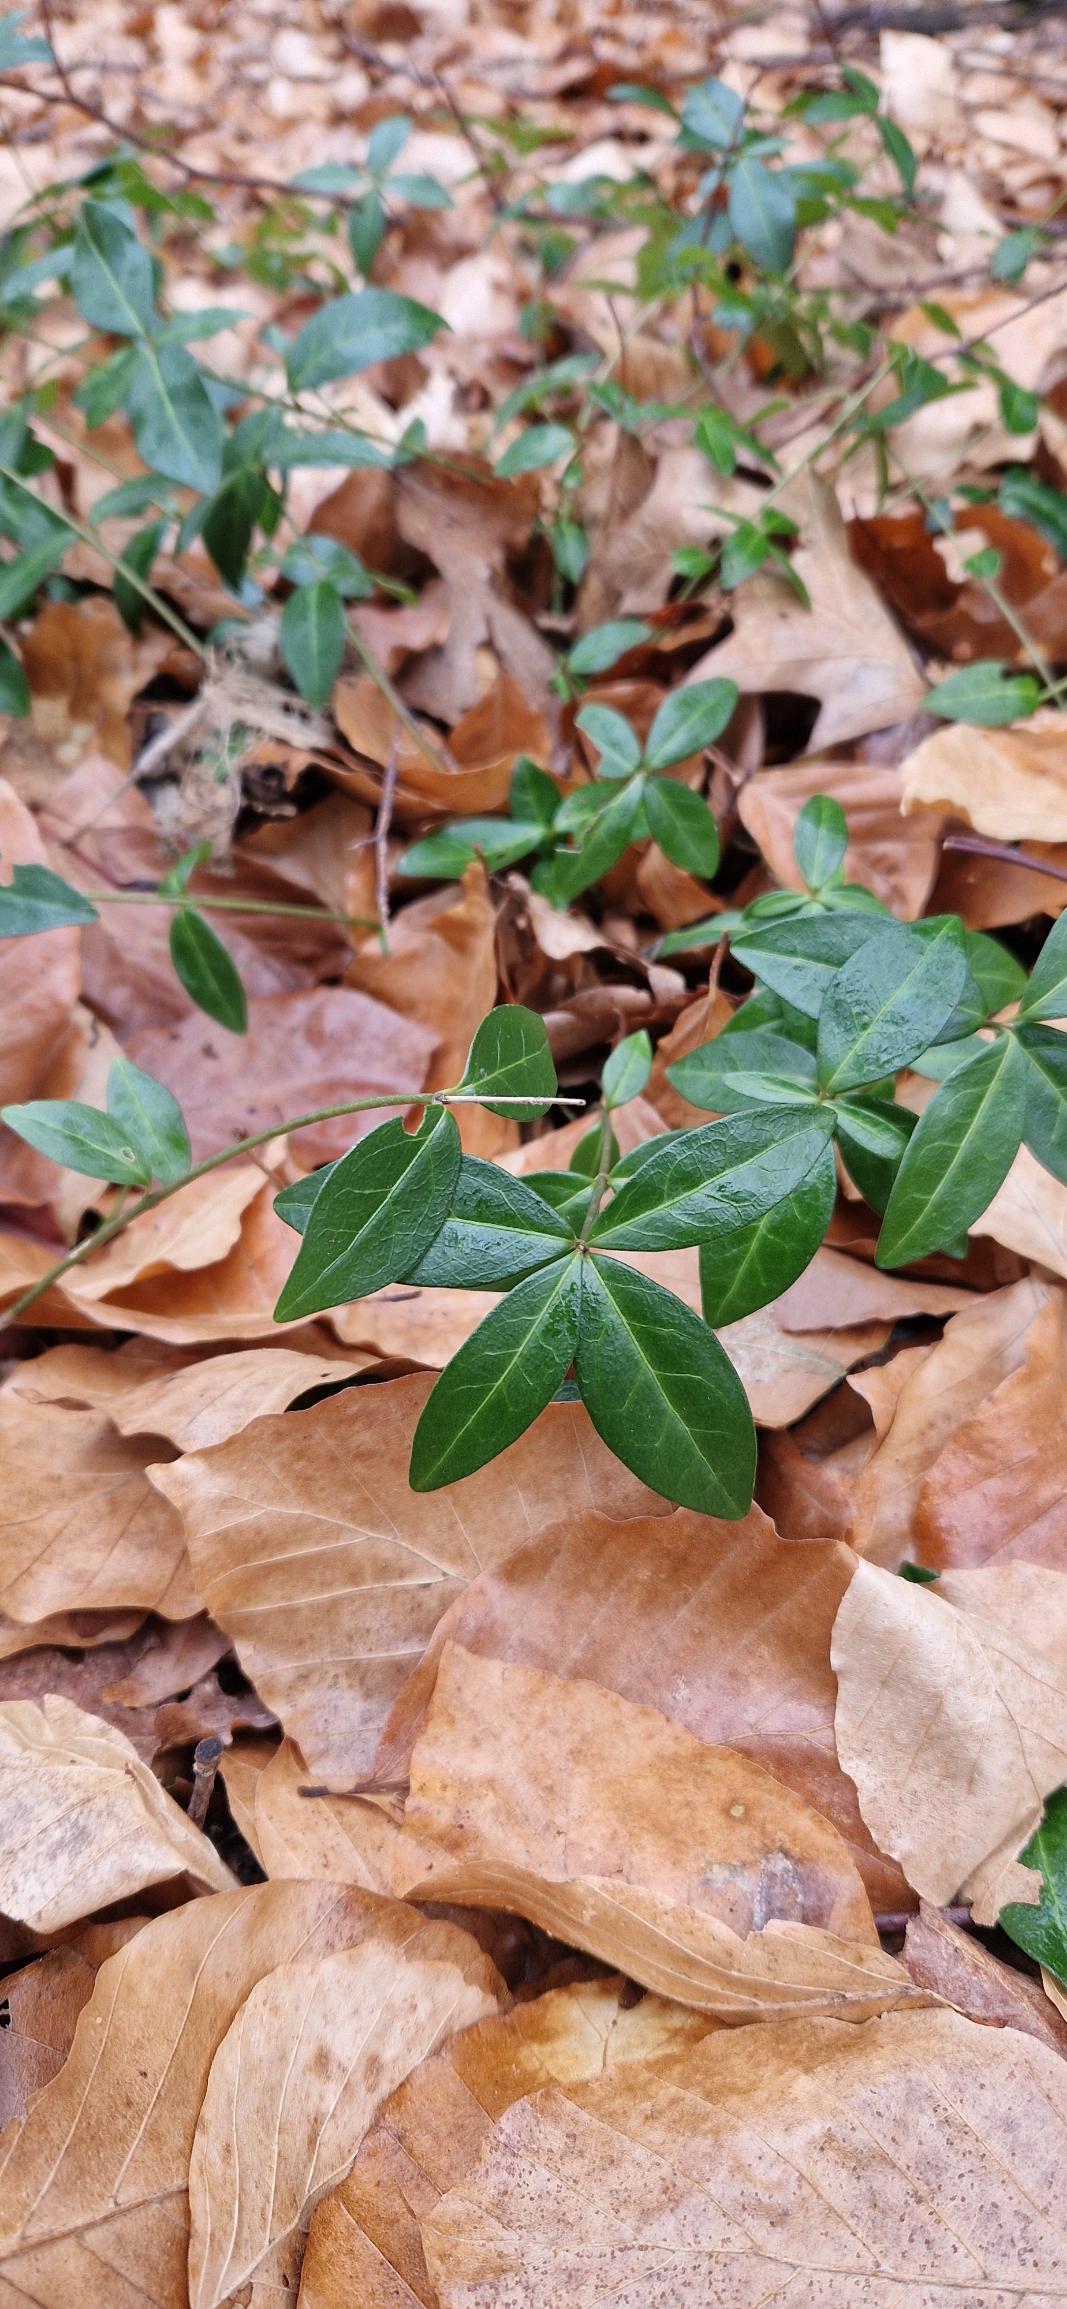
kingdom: Plantae
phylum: Tracheophyta
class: Magnoliopsida
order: Gentianales
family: Apocynaceae
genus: Vinca
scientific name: Vinca minor
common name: Liden singrøn
